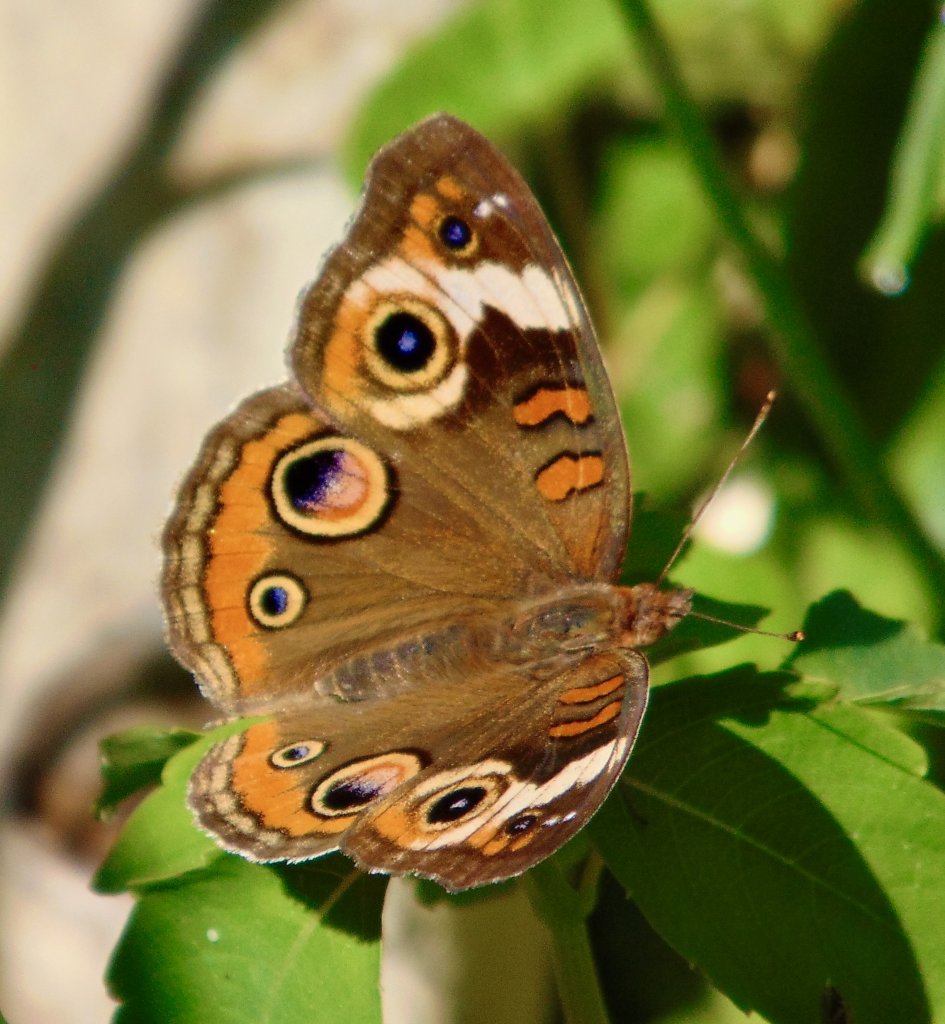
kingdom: Animalia
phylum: Arthropoda
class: Insecta
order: Lepidoptera
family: Nymphalidae
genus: Junonia
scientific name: Junonia coenia
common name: Common Buckeye
